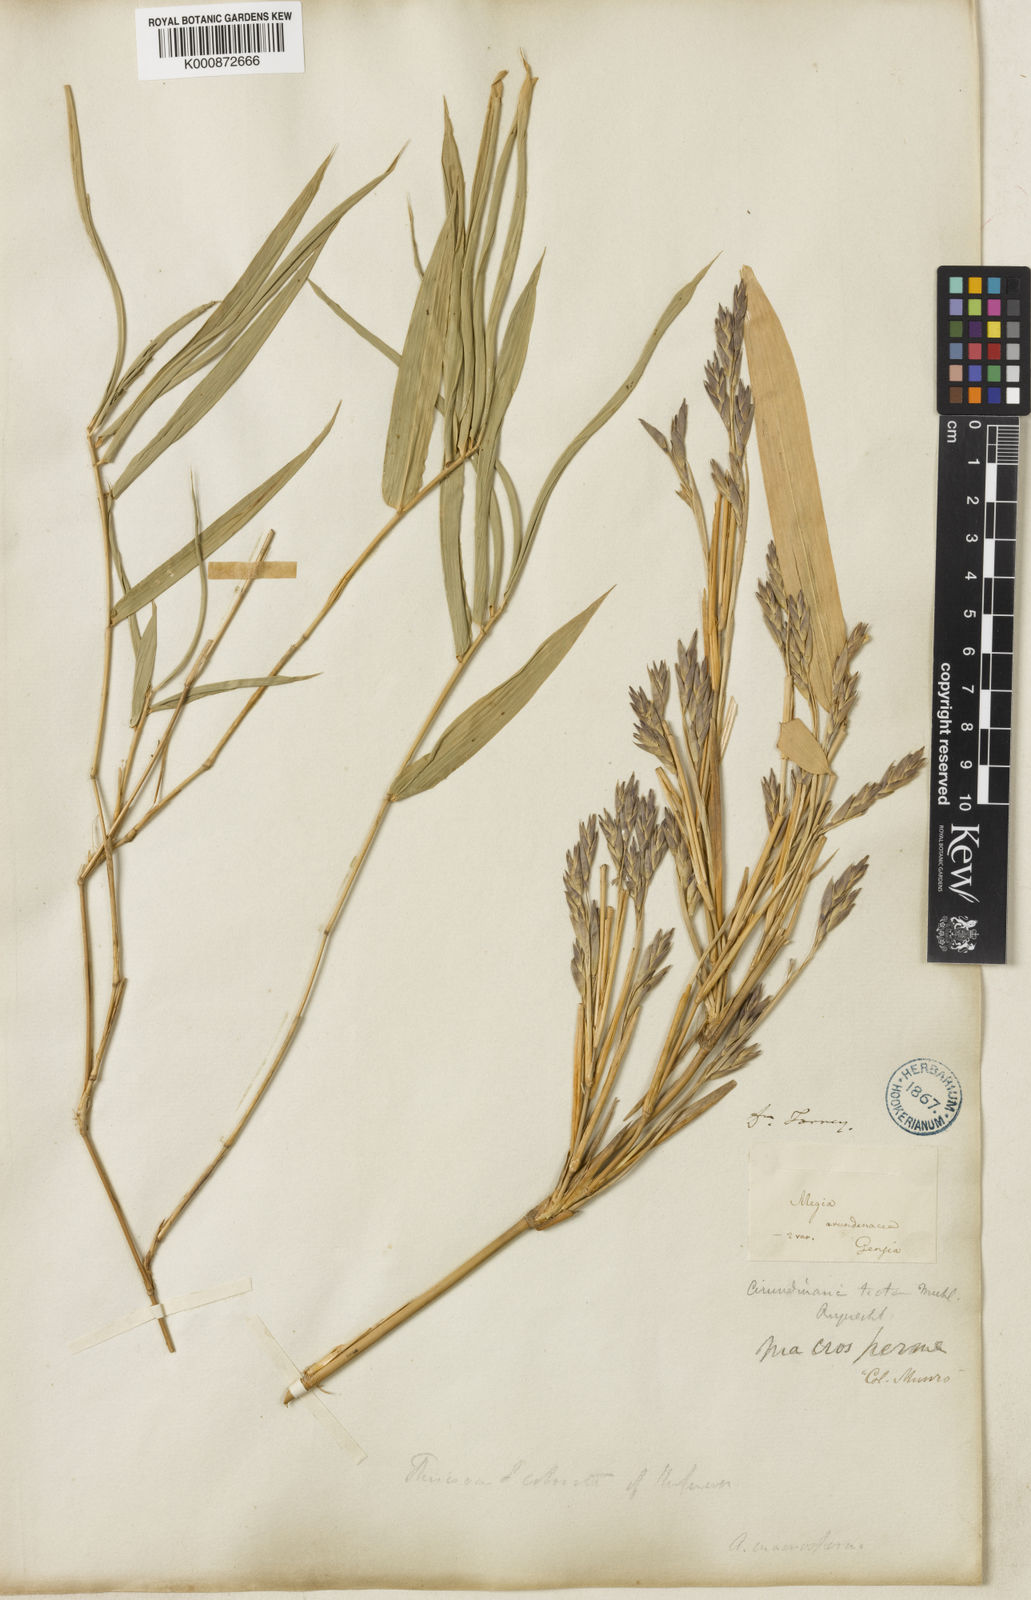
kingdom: Plantae
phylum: Tracheophyta
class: Liliopsida
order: Poales
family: Poaceae
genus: Arundinaria
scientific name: Arundinaria gigantea
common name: Giant cane
